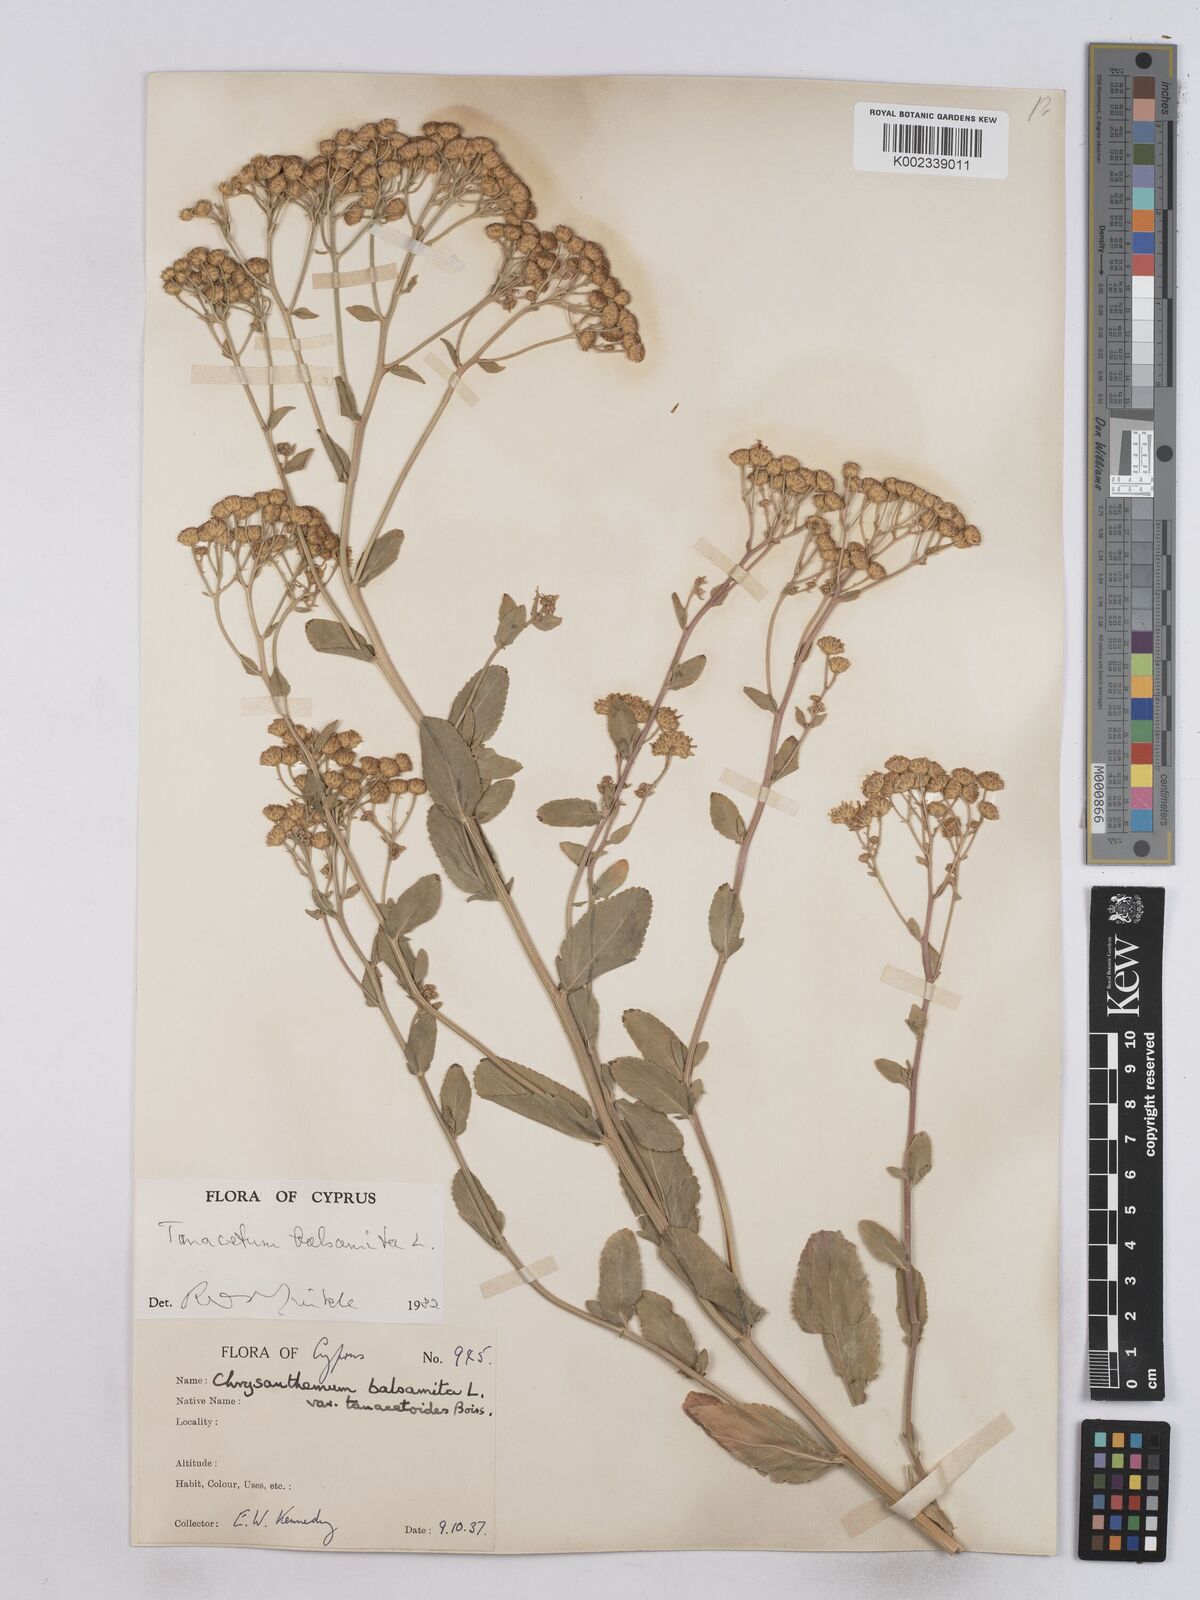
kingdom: Plantae
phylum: Tracheophyta
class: Magnoliopsida
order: Asterales
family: Asteraceae
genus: Tanacetum
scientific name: Tanacetum balsamita
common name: Costmary
